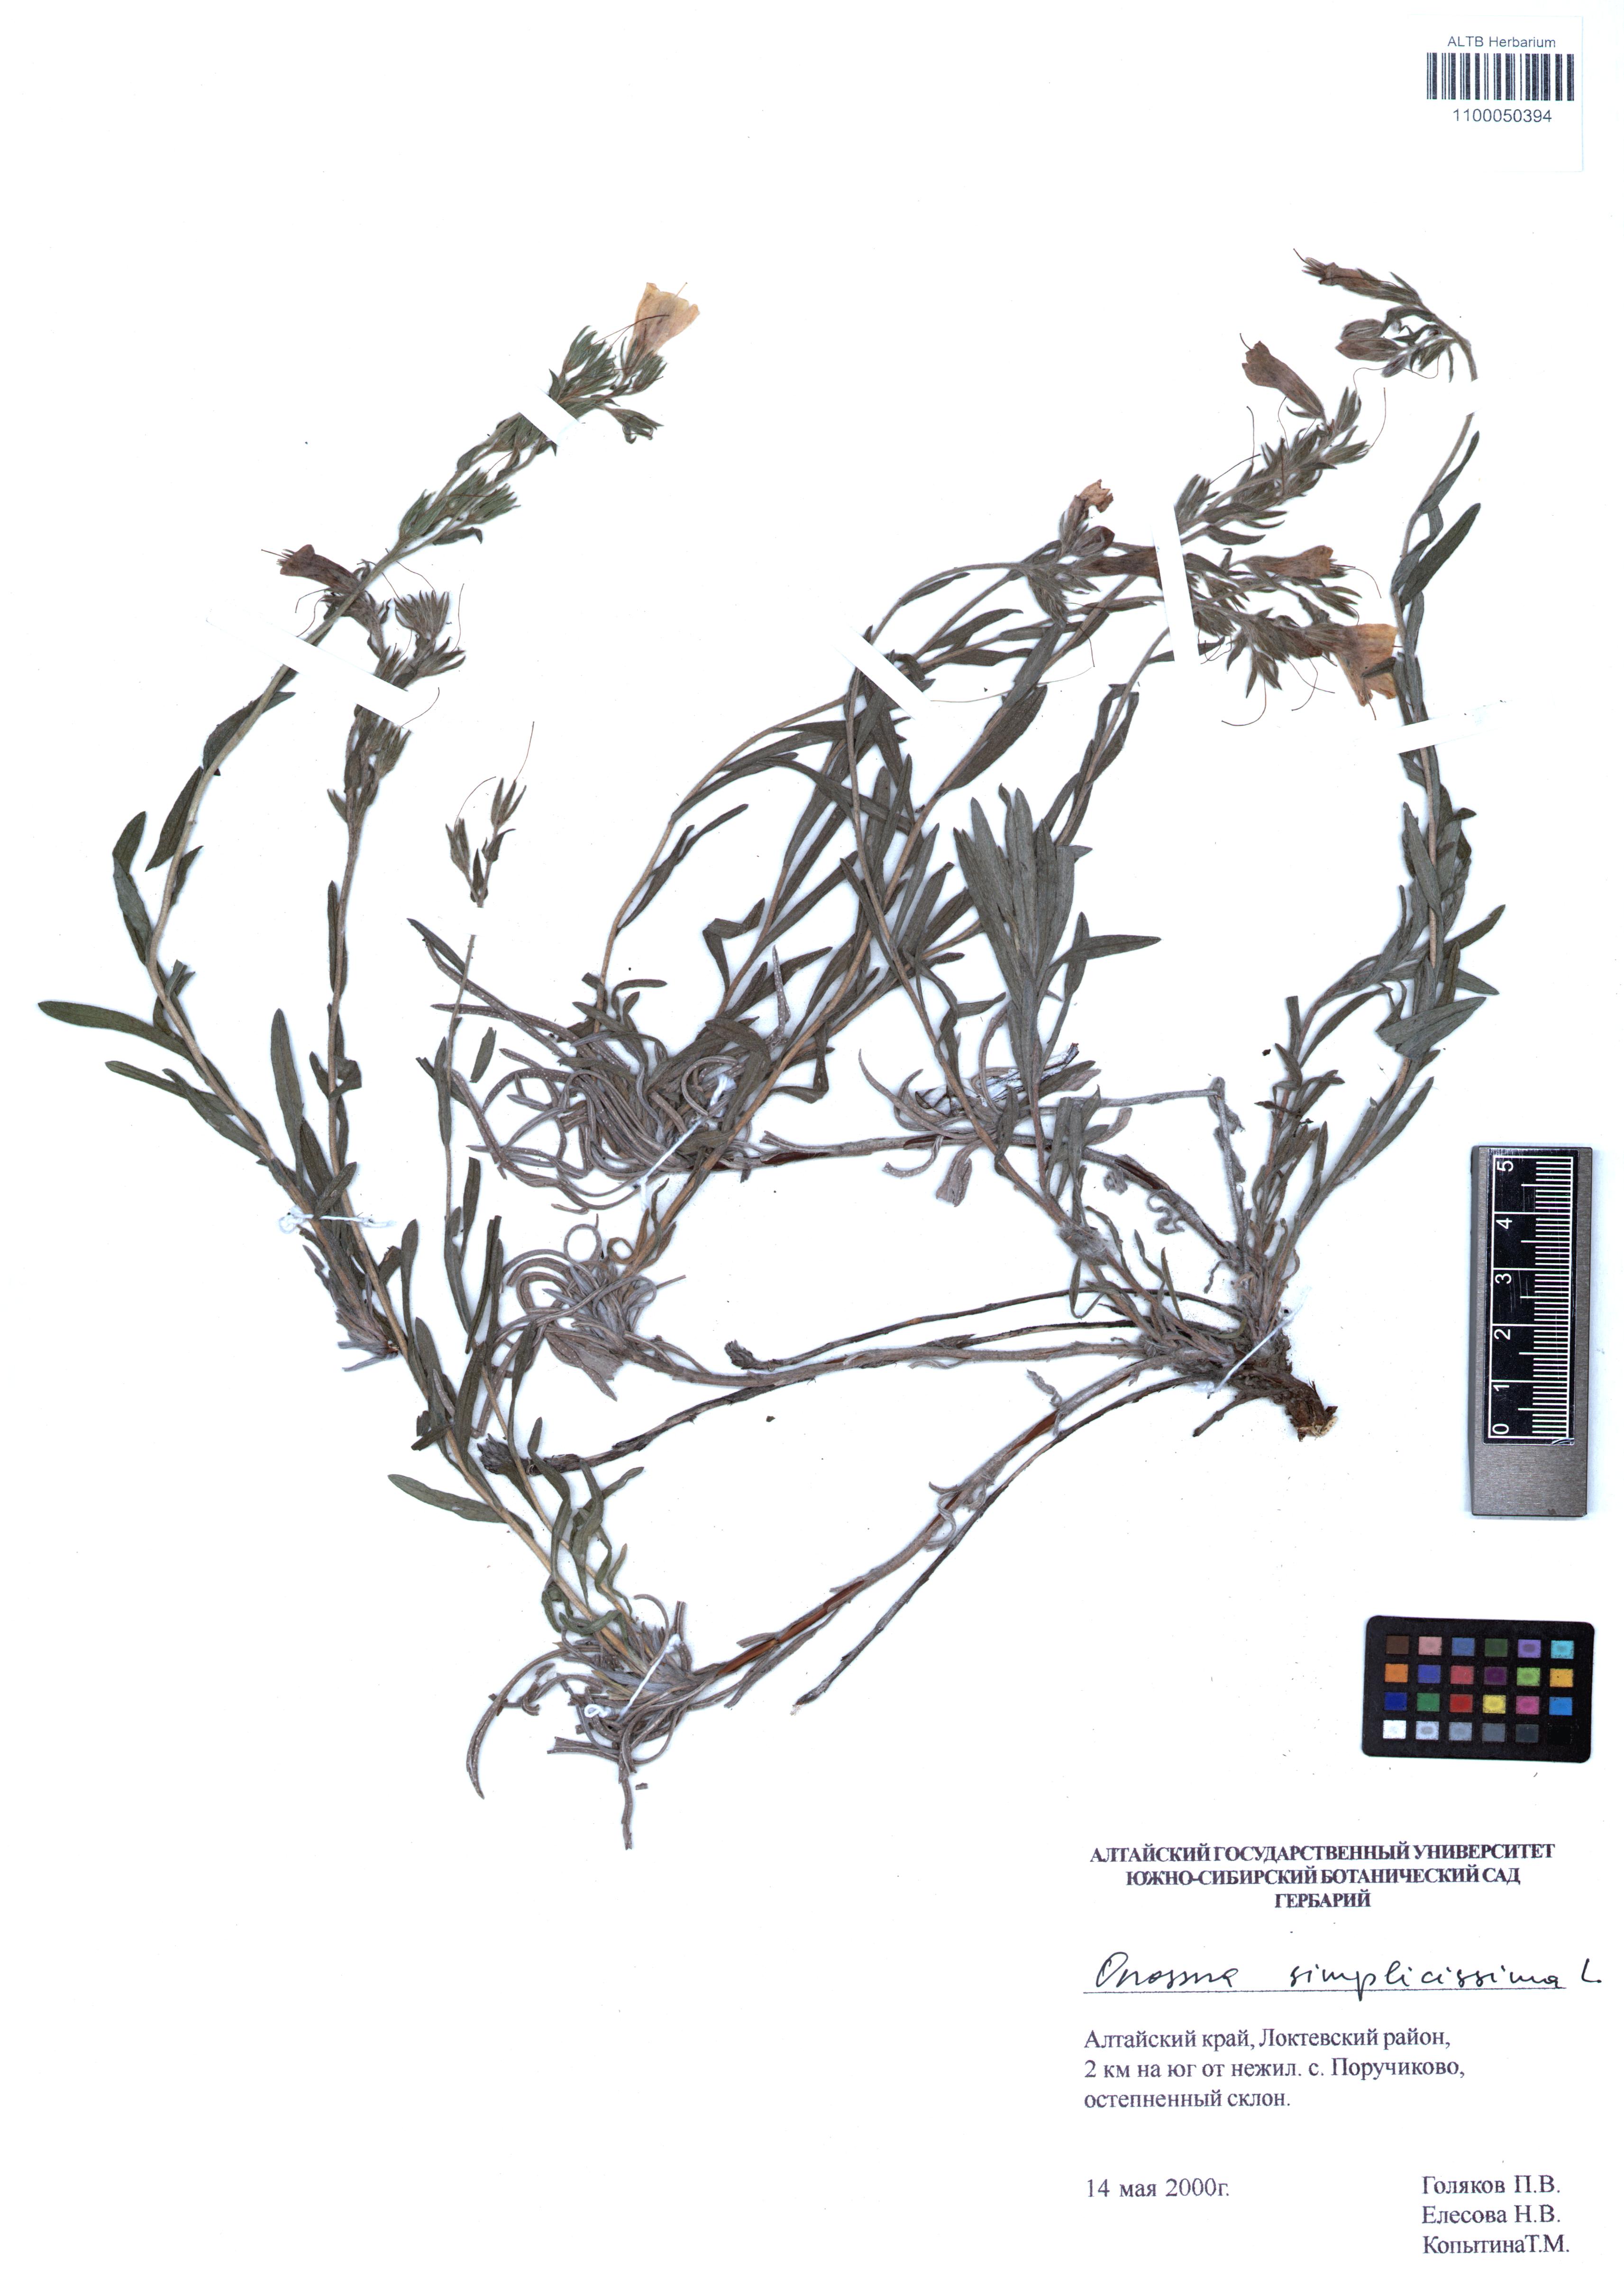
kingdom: Plantae
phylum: Tracheophyta
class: Magnoliopsida
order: Boraginales
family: Boraginaceae
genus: Onosma
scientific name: Onosma simplicissima
